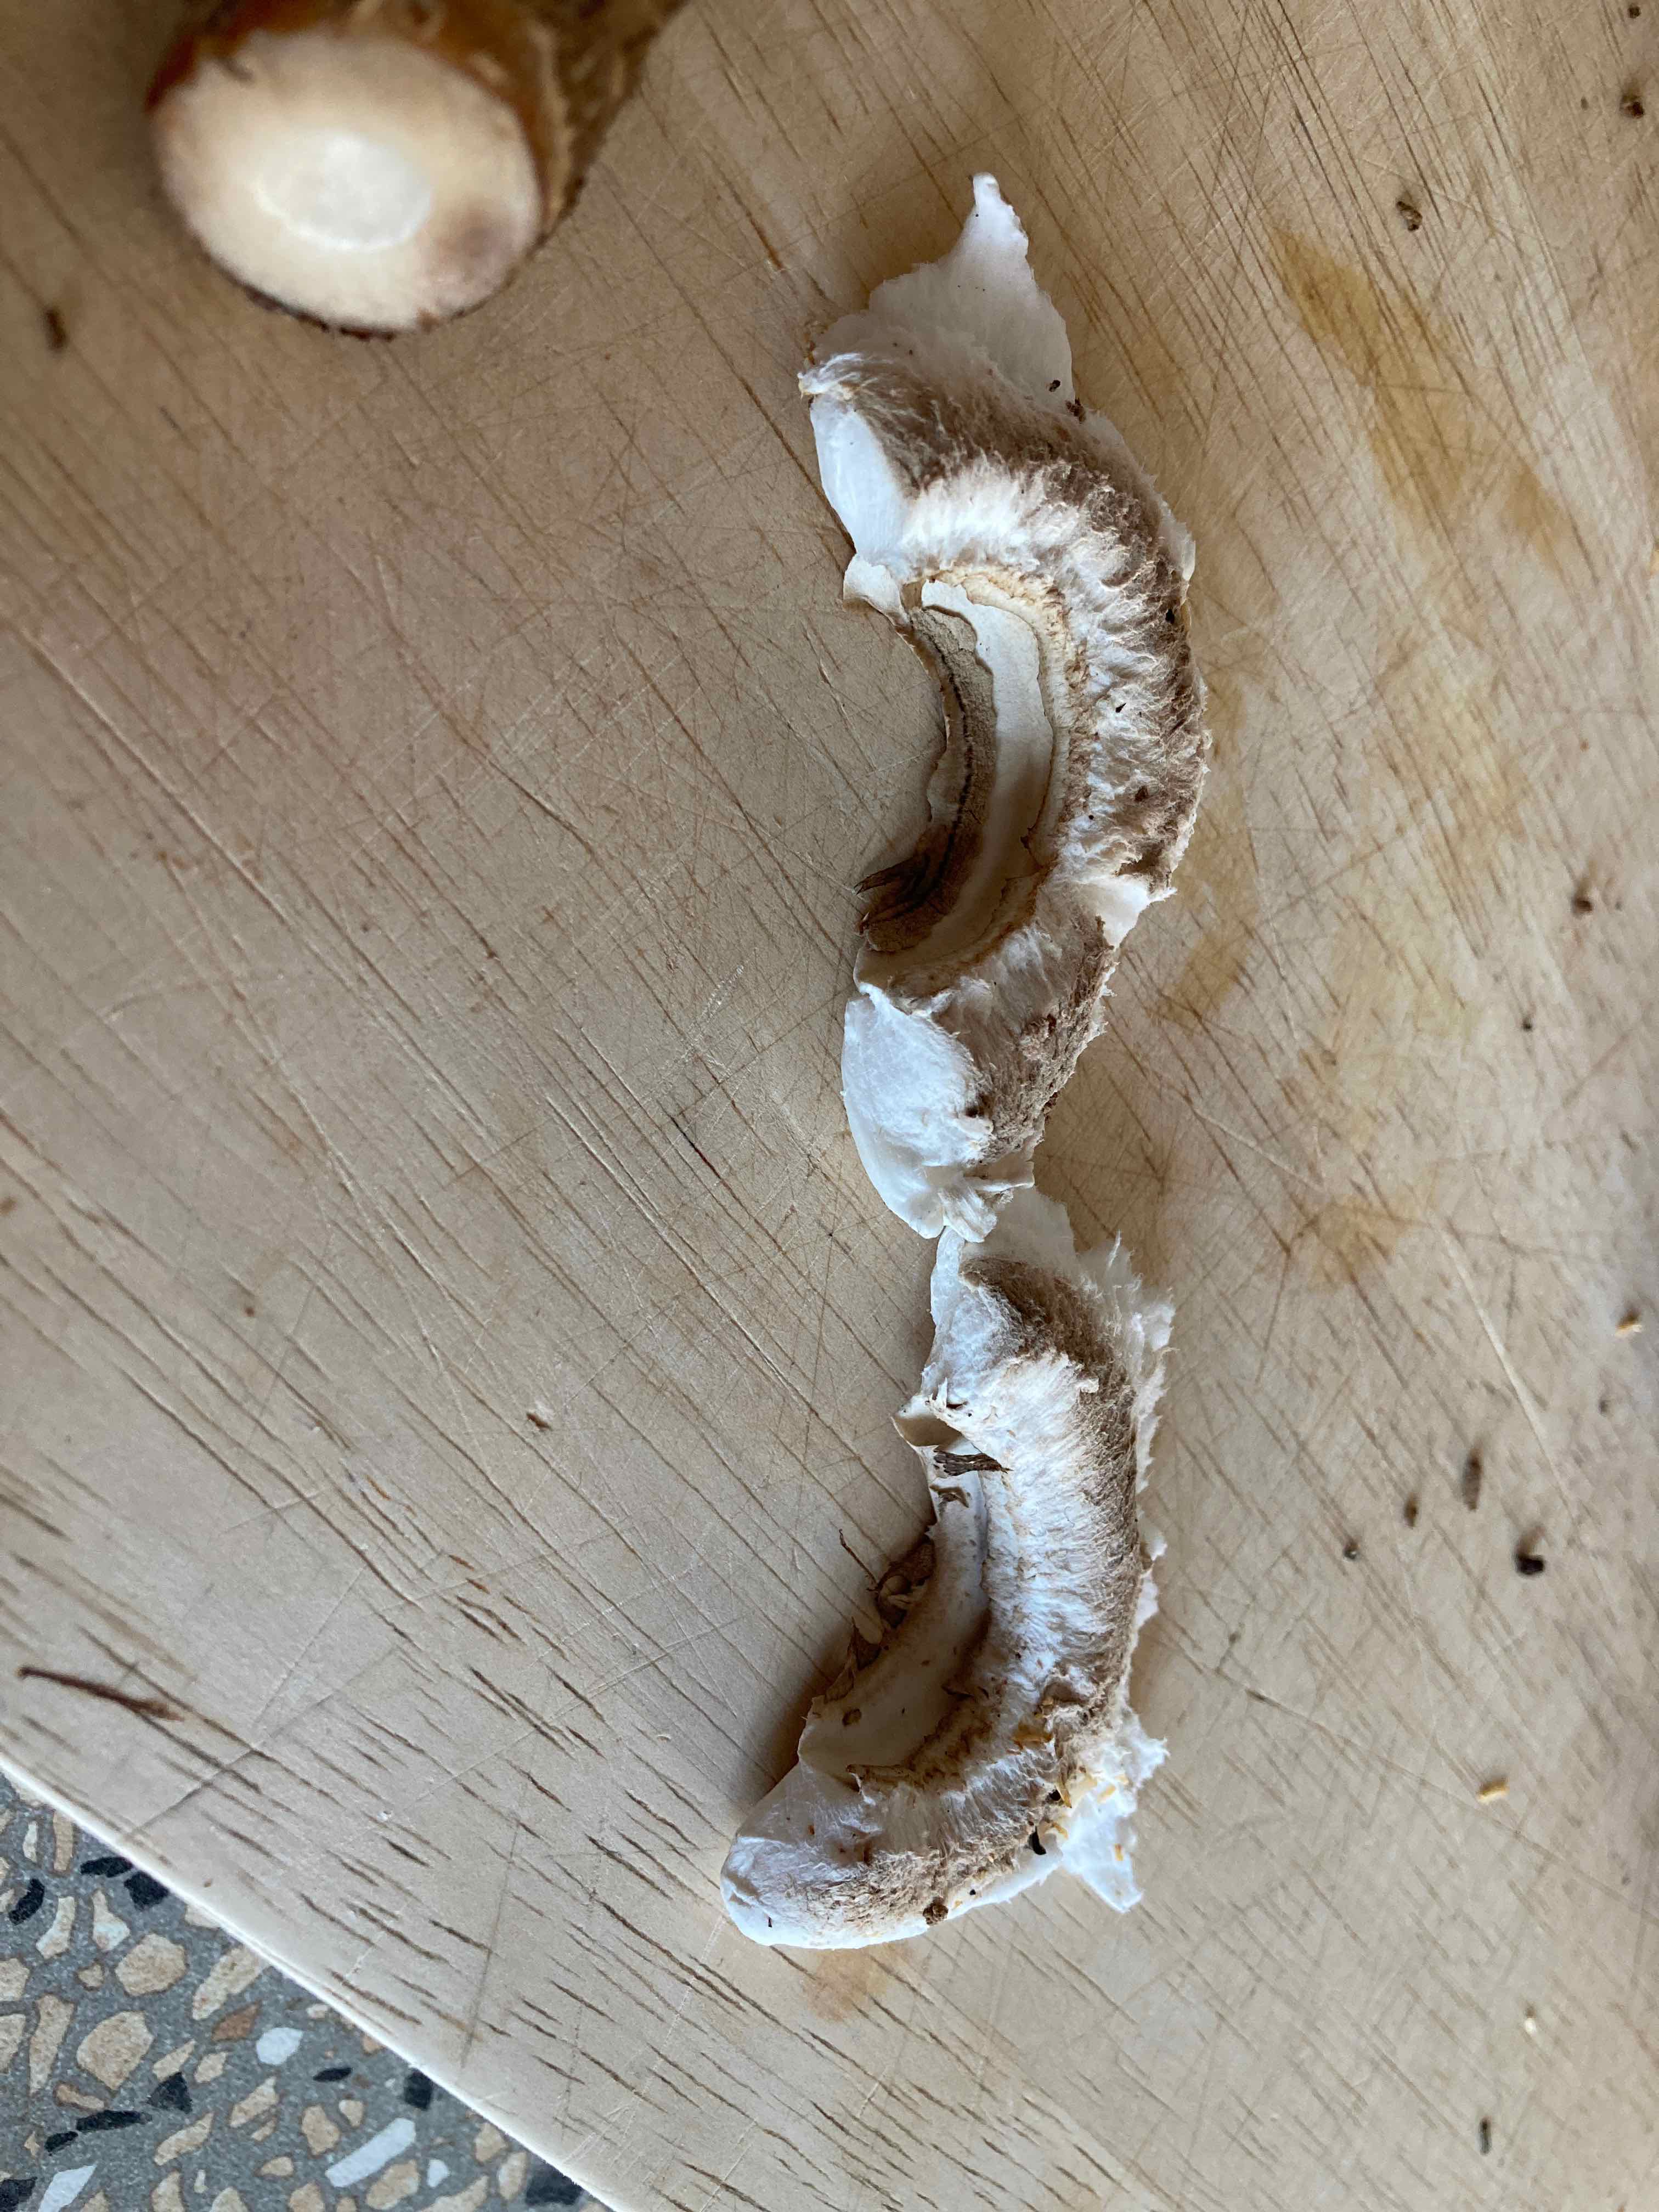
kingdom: Fungi
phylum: Basidiomycota
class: Agaricomycetes
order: Agaricales
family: Agaricaceae
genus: Macrolepiota
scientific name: Macrolepiota procera
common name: stor kæmpeparasolhat
